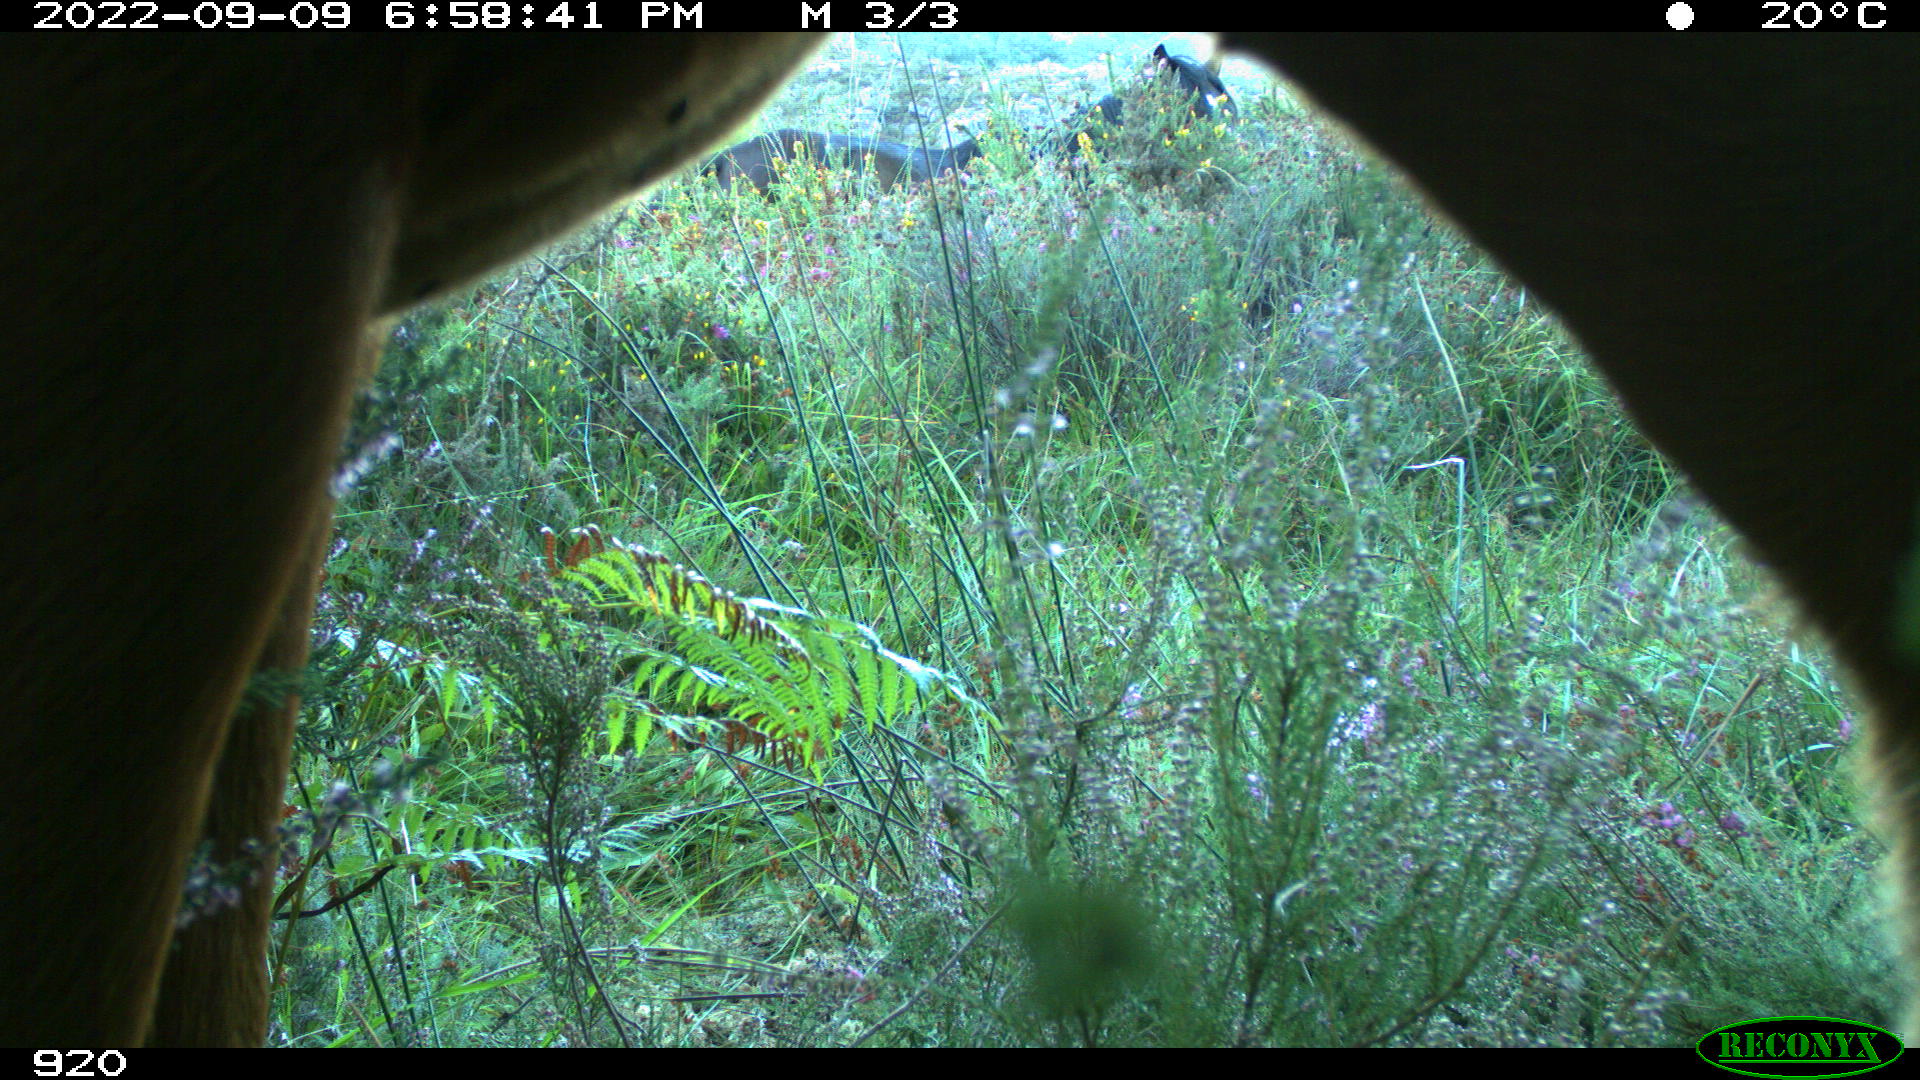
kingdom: Animalia
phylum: Chordata
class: Mammalia
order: Perissodactyla
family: Equidae
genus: Equus
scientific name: Equus caballus
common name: Horse
